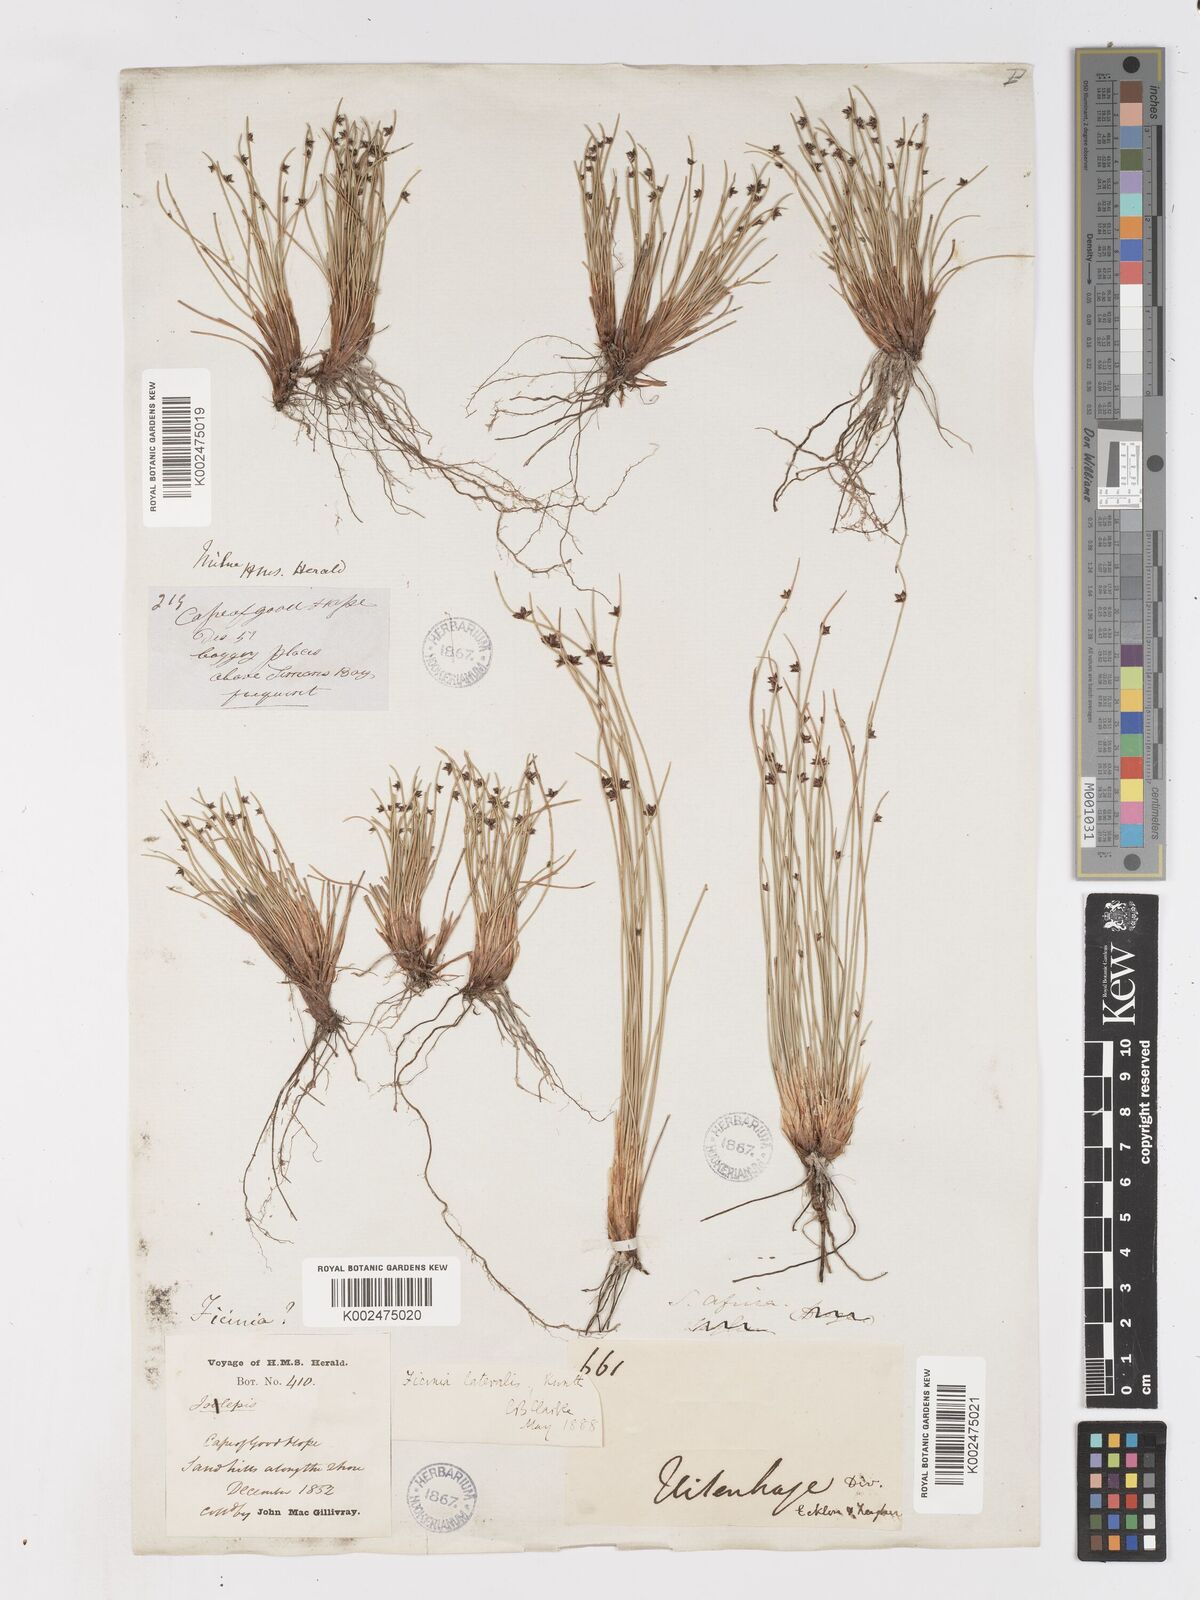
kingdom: Plantae
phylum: Tracheophyta
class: Liliopsida
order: Poales
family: Cyperaceae
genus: Ficinia
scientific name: Ficinia lateralis
